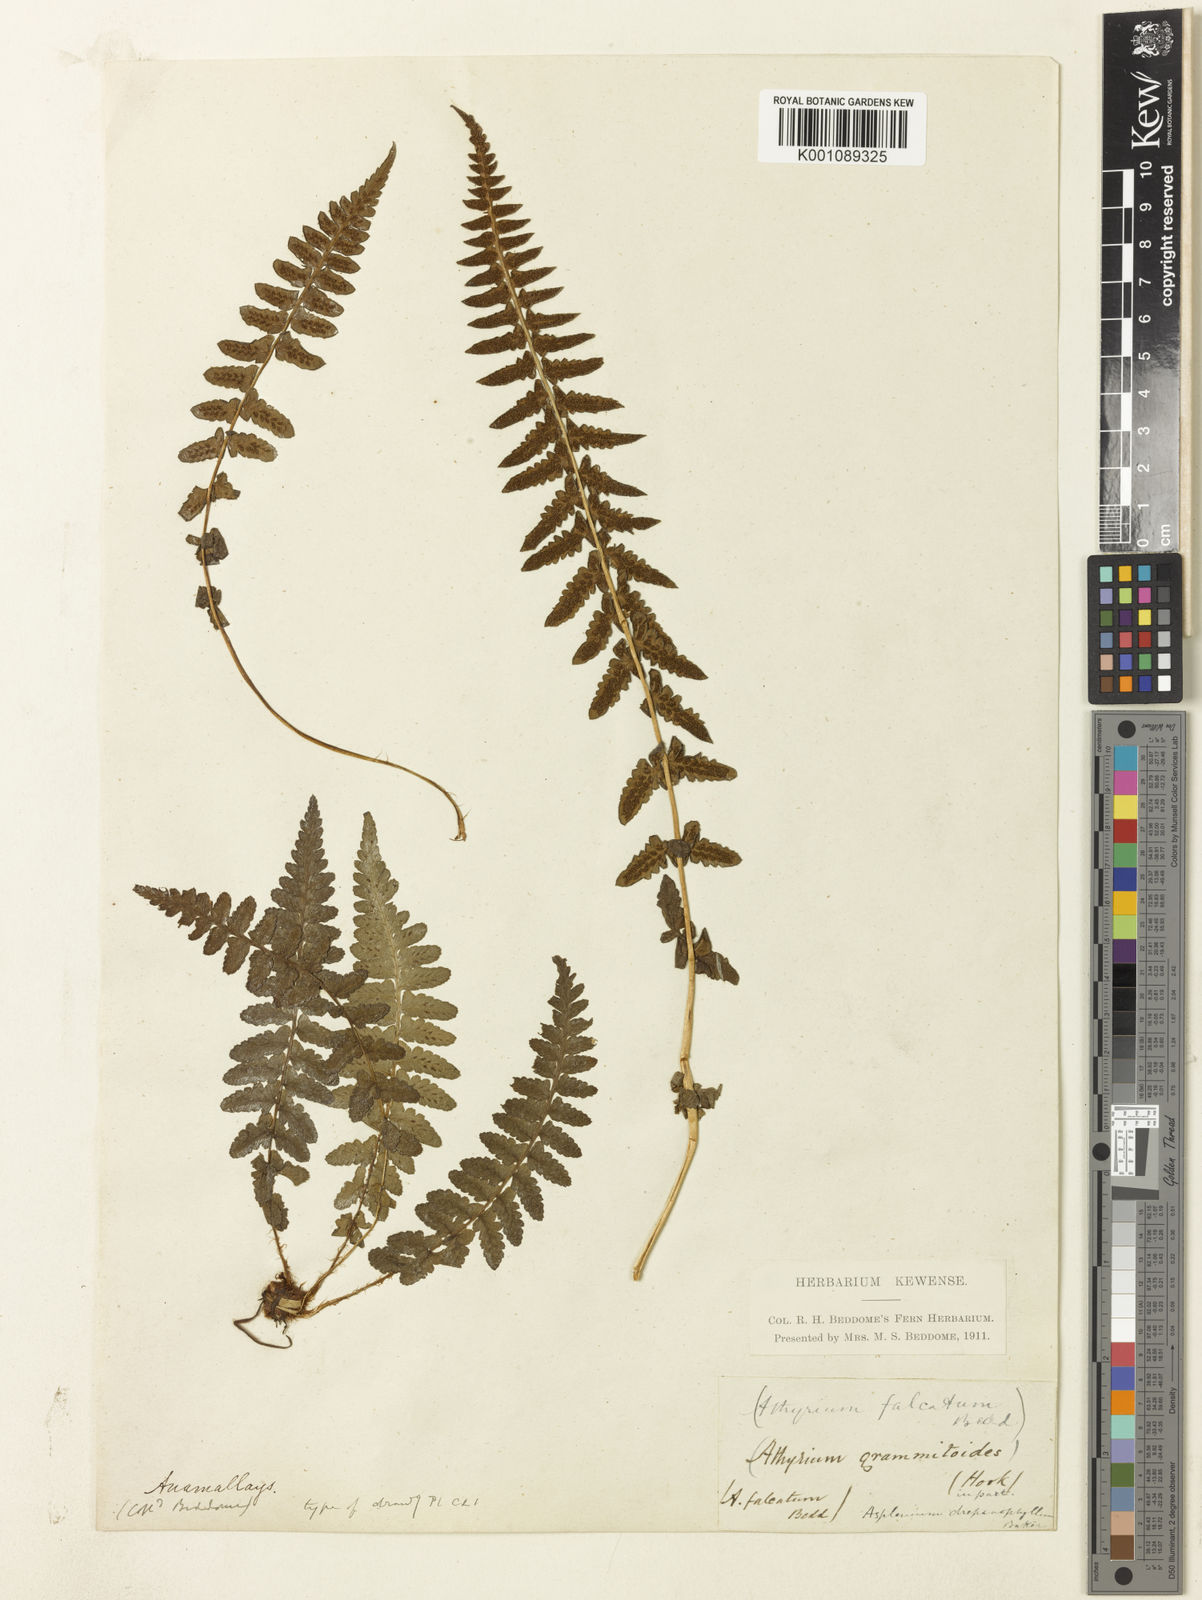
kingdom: Plantae
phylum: Tracheophyta
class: Polypodiopsida
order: Polypodiales
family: Athyriaceae
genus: Athyrium
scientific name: Athyrium falcatum
